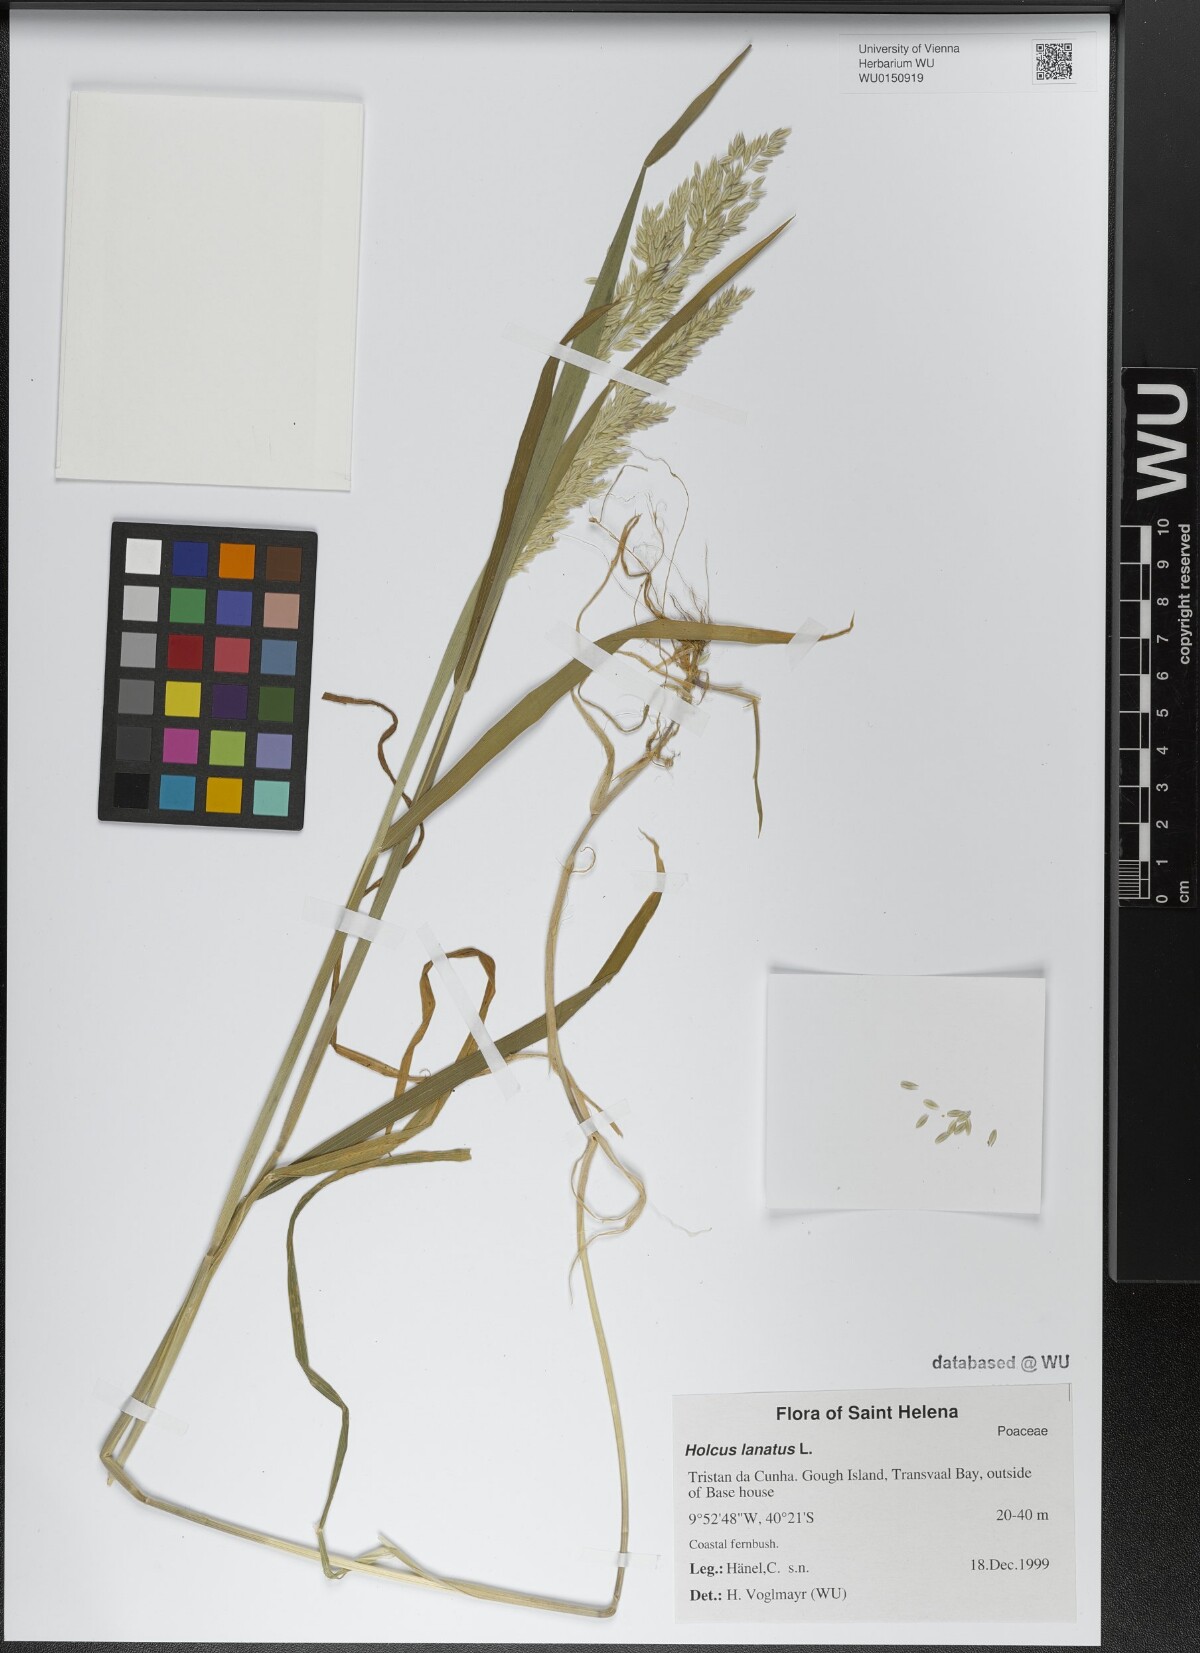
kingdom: Plantae
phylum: Tracheophyta
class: Liliopsida
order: Poales
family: Poaceae
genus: Holcus
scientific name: Holcus lanatus
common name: Yorkshire-fog
